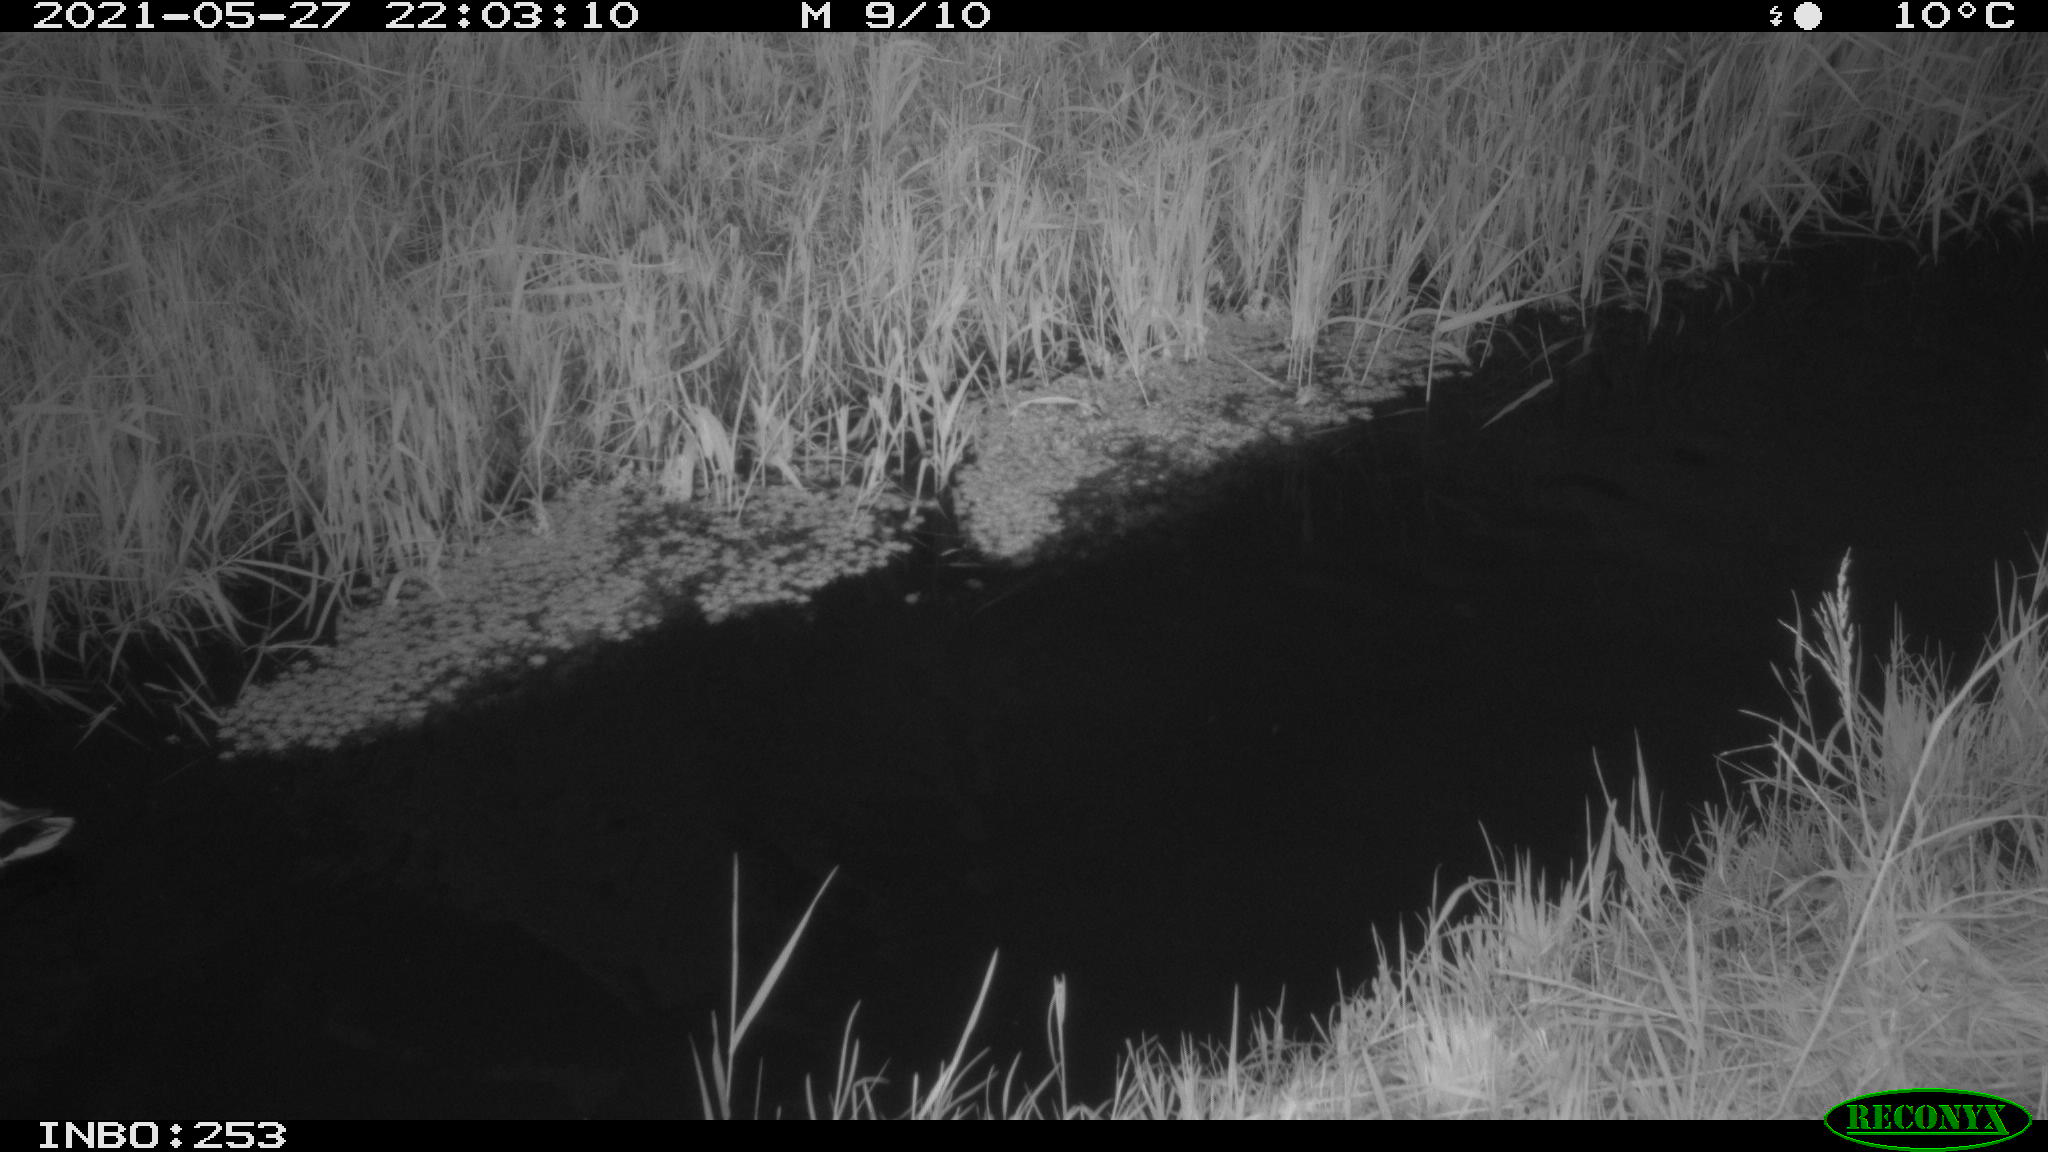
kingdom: Animalia
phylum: Chordata
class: Aves
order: Anseriformes
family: Anatidae
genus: Anas
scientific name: Anas
